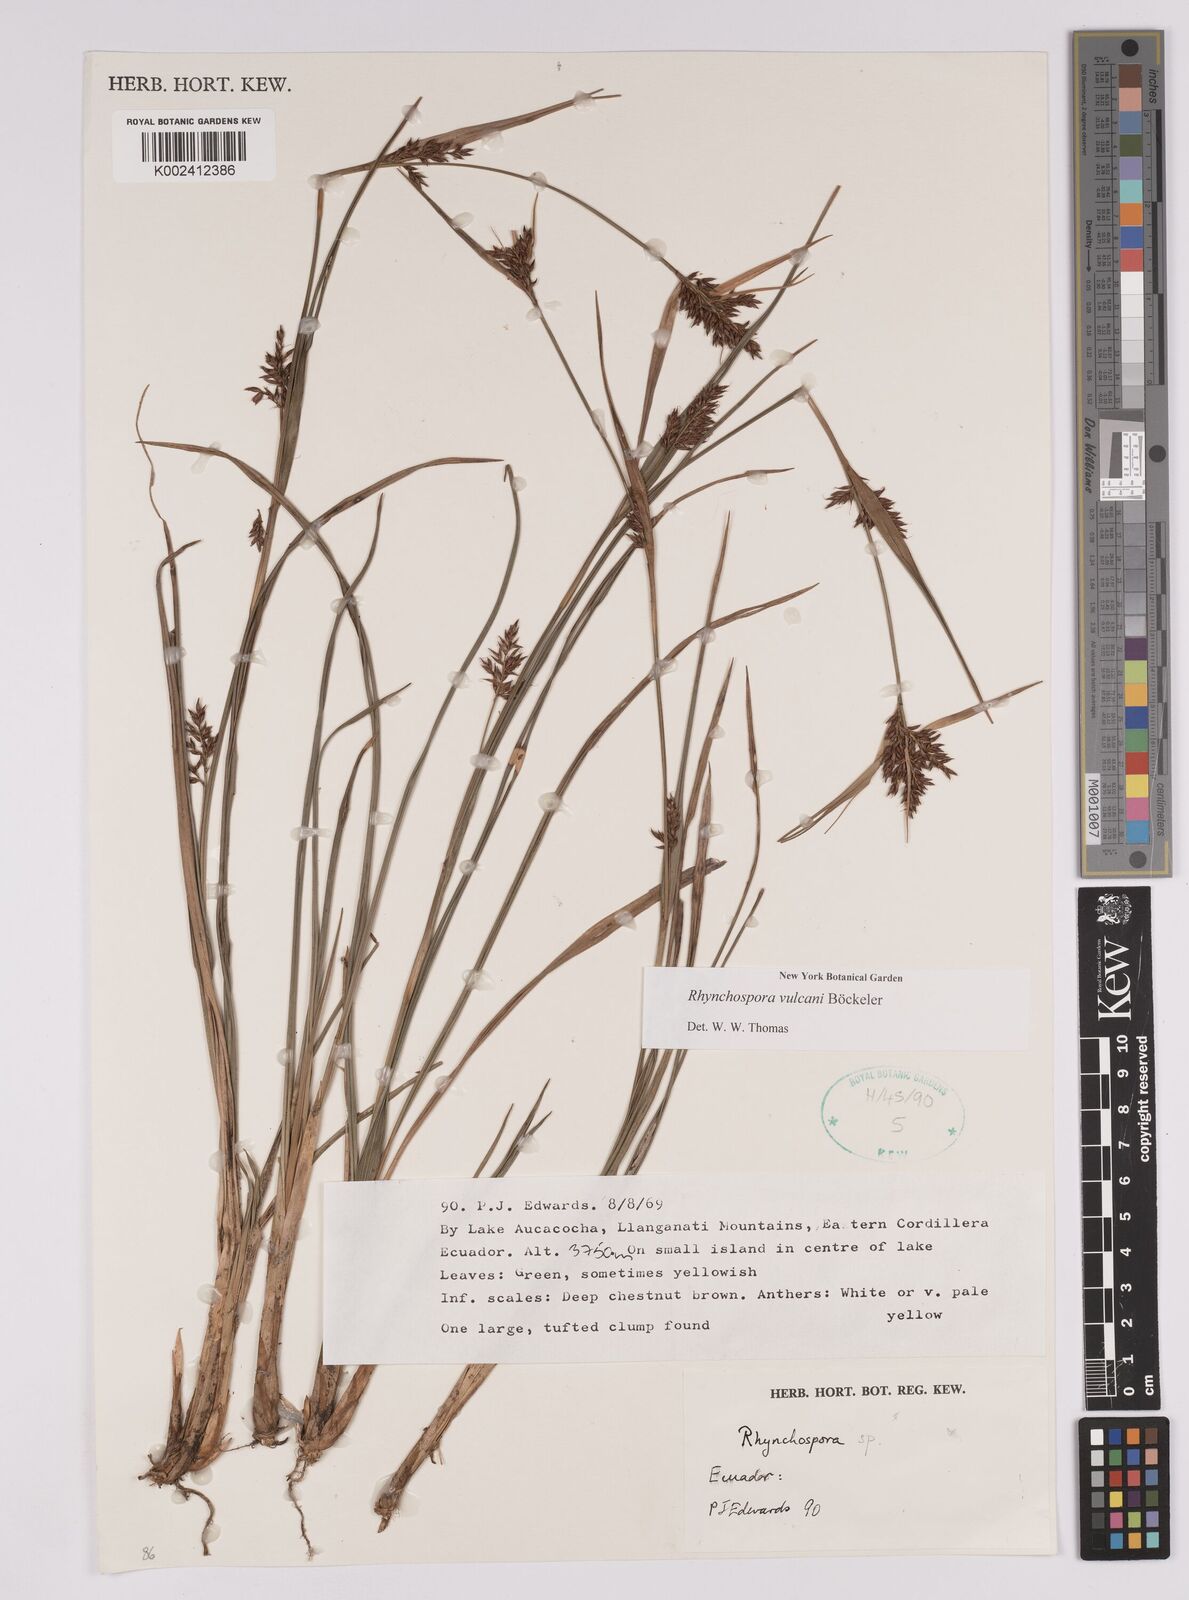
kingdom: Plantae
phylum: Tracheophyta
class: Liliopsida
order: Poales
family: Cyperaceae
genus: Rhynchospora
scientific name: Rhynchospora vulcani
